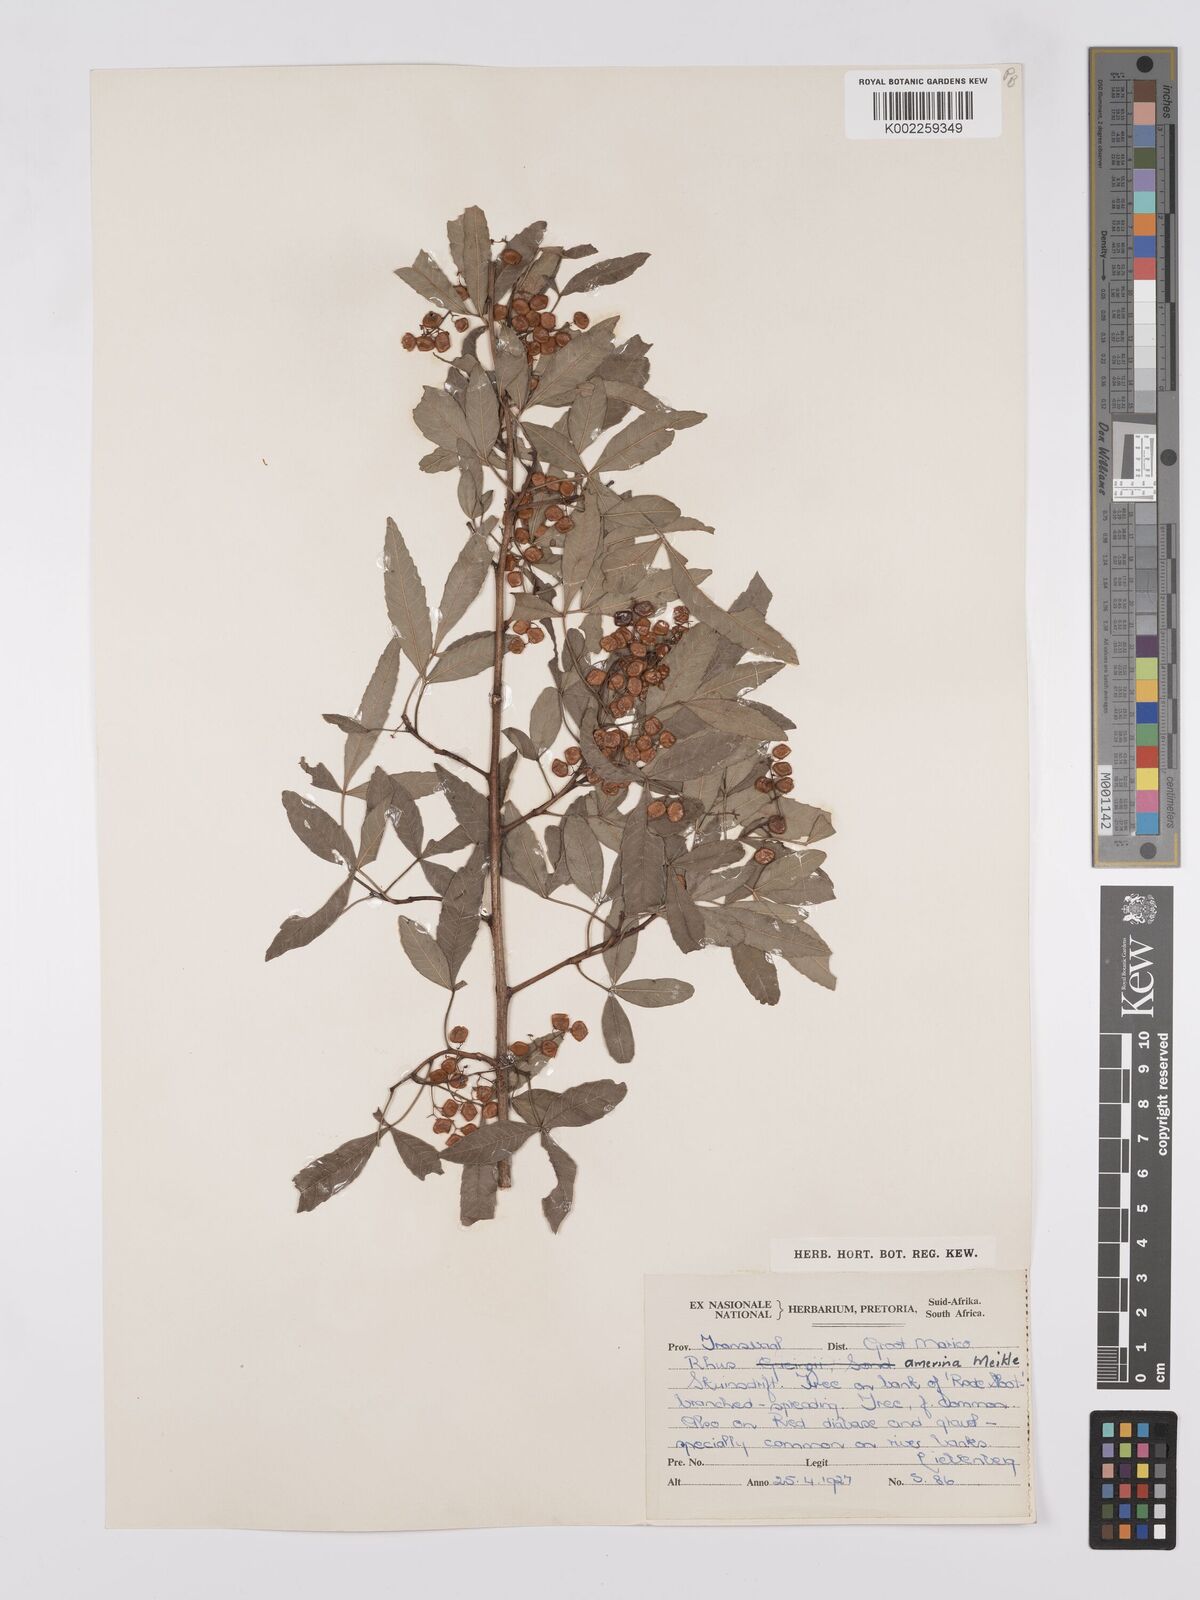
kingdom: Plantae
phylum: Tracheophyta
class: Magnoliopsida
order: Sapindales
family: Anacardiaceae
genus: Searsia
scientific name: Searsia leptodictya
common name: Mountain karee
